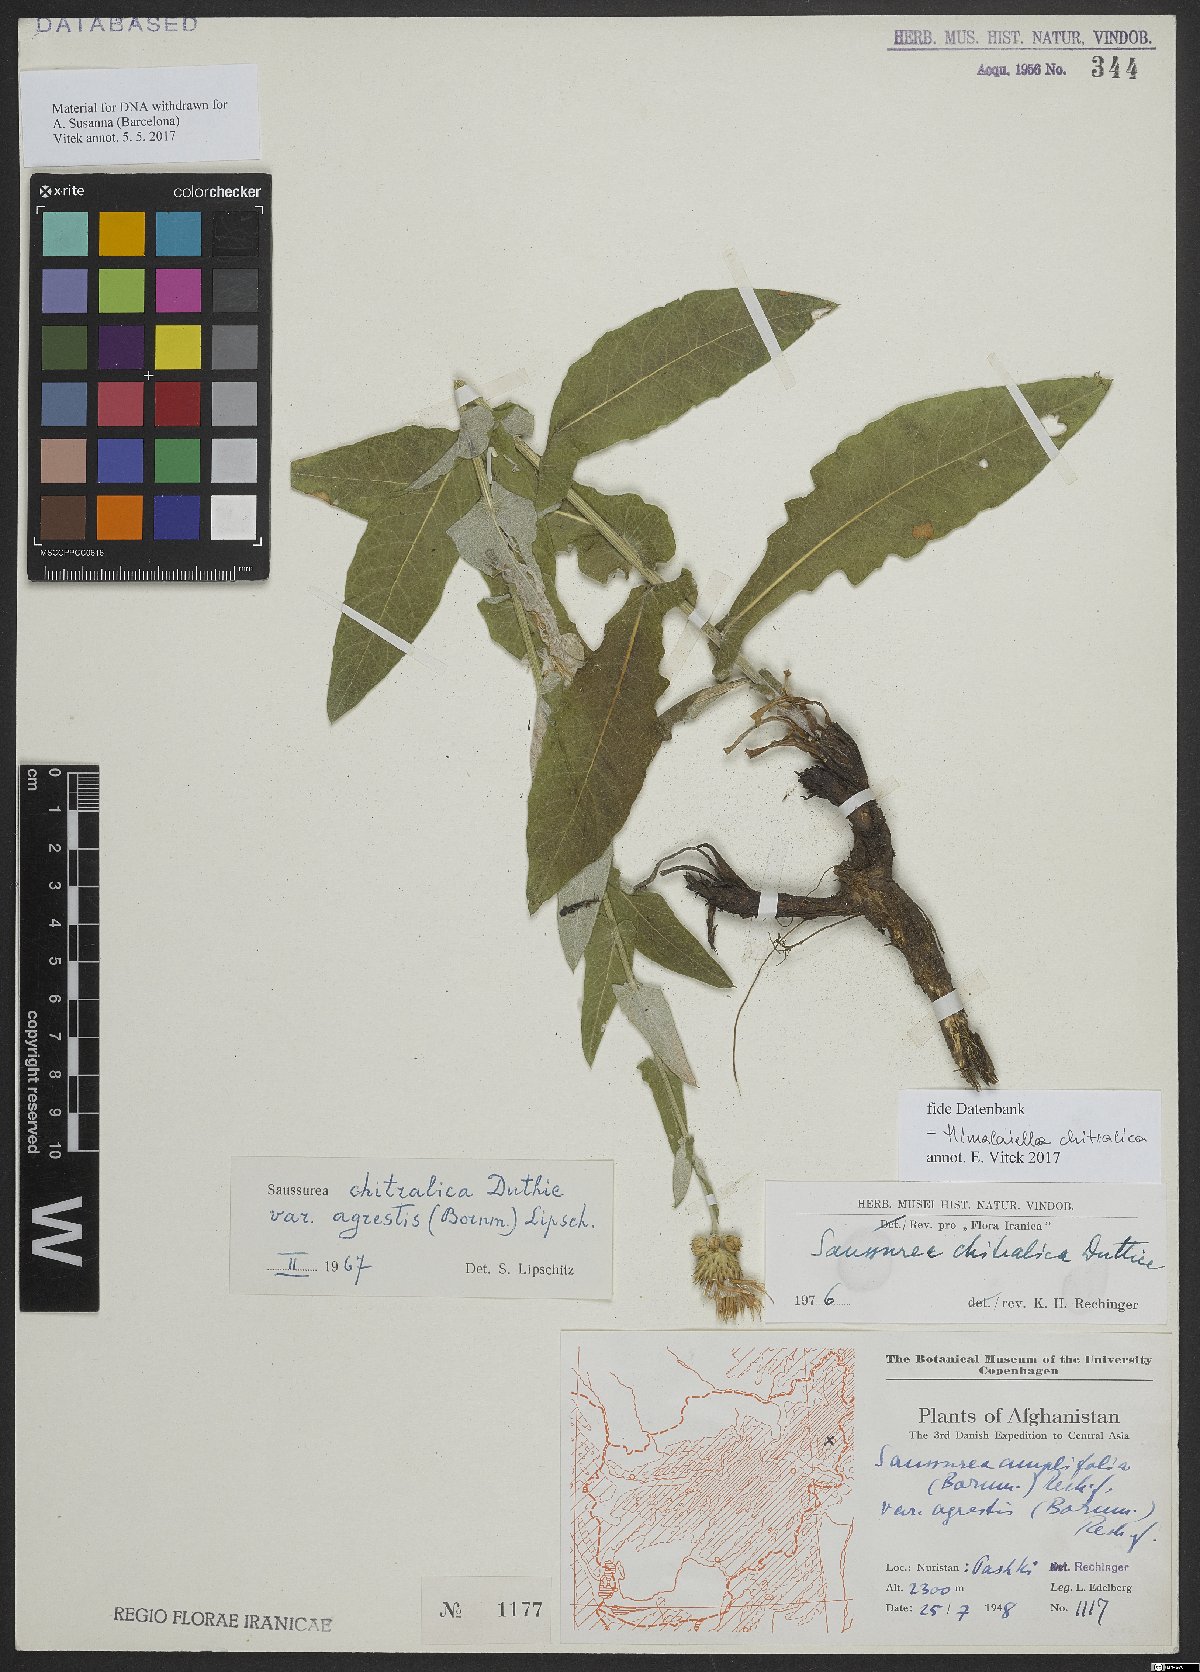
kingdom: Plantae
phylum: Tracheophyta
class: Magnoliopsida
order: Asterales
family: Asteraceae
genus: Jurinea
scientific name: Jurinea chitralica
